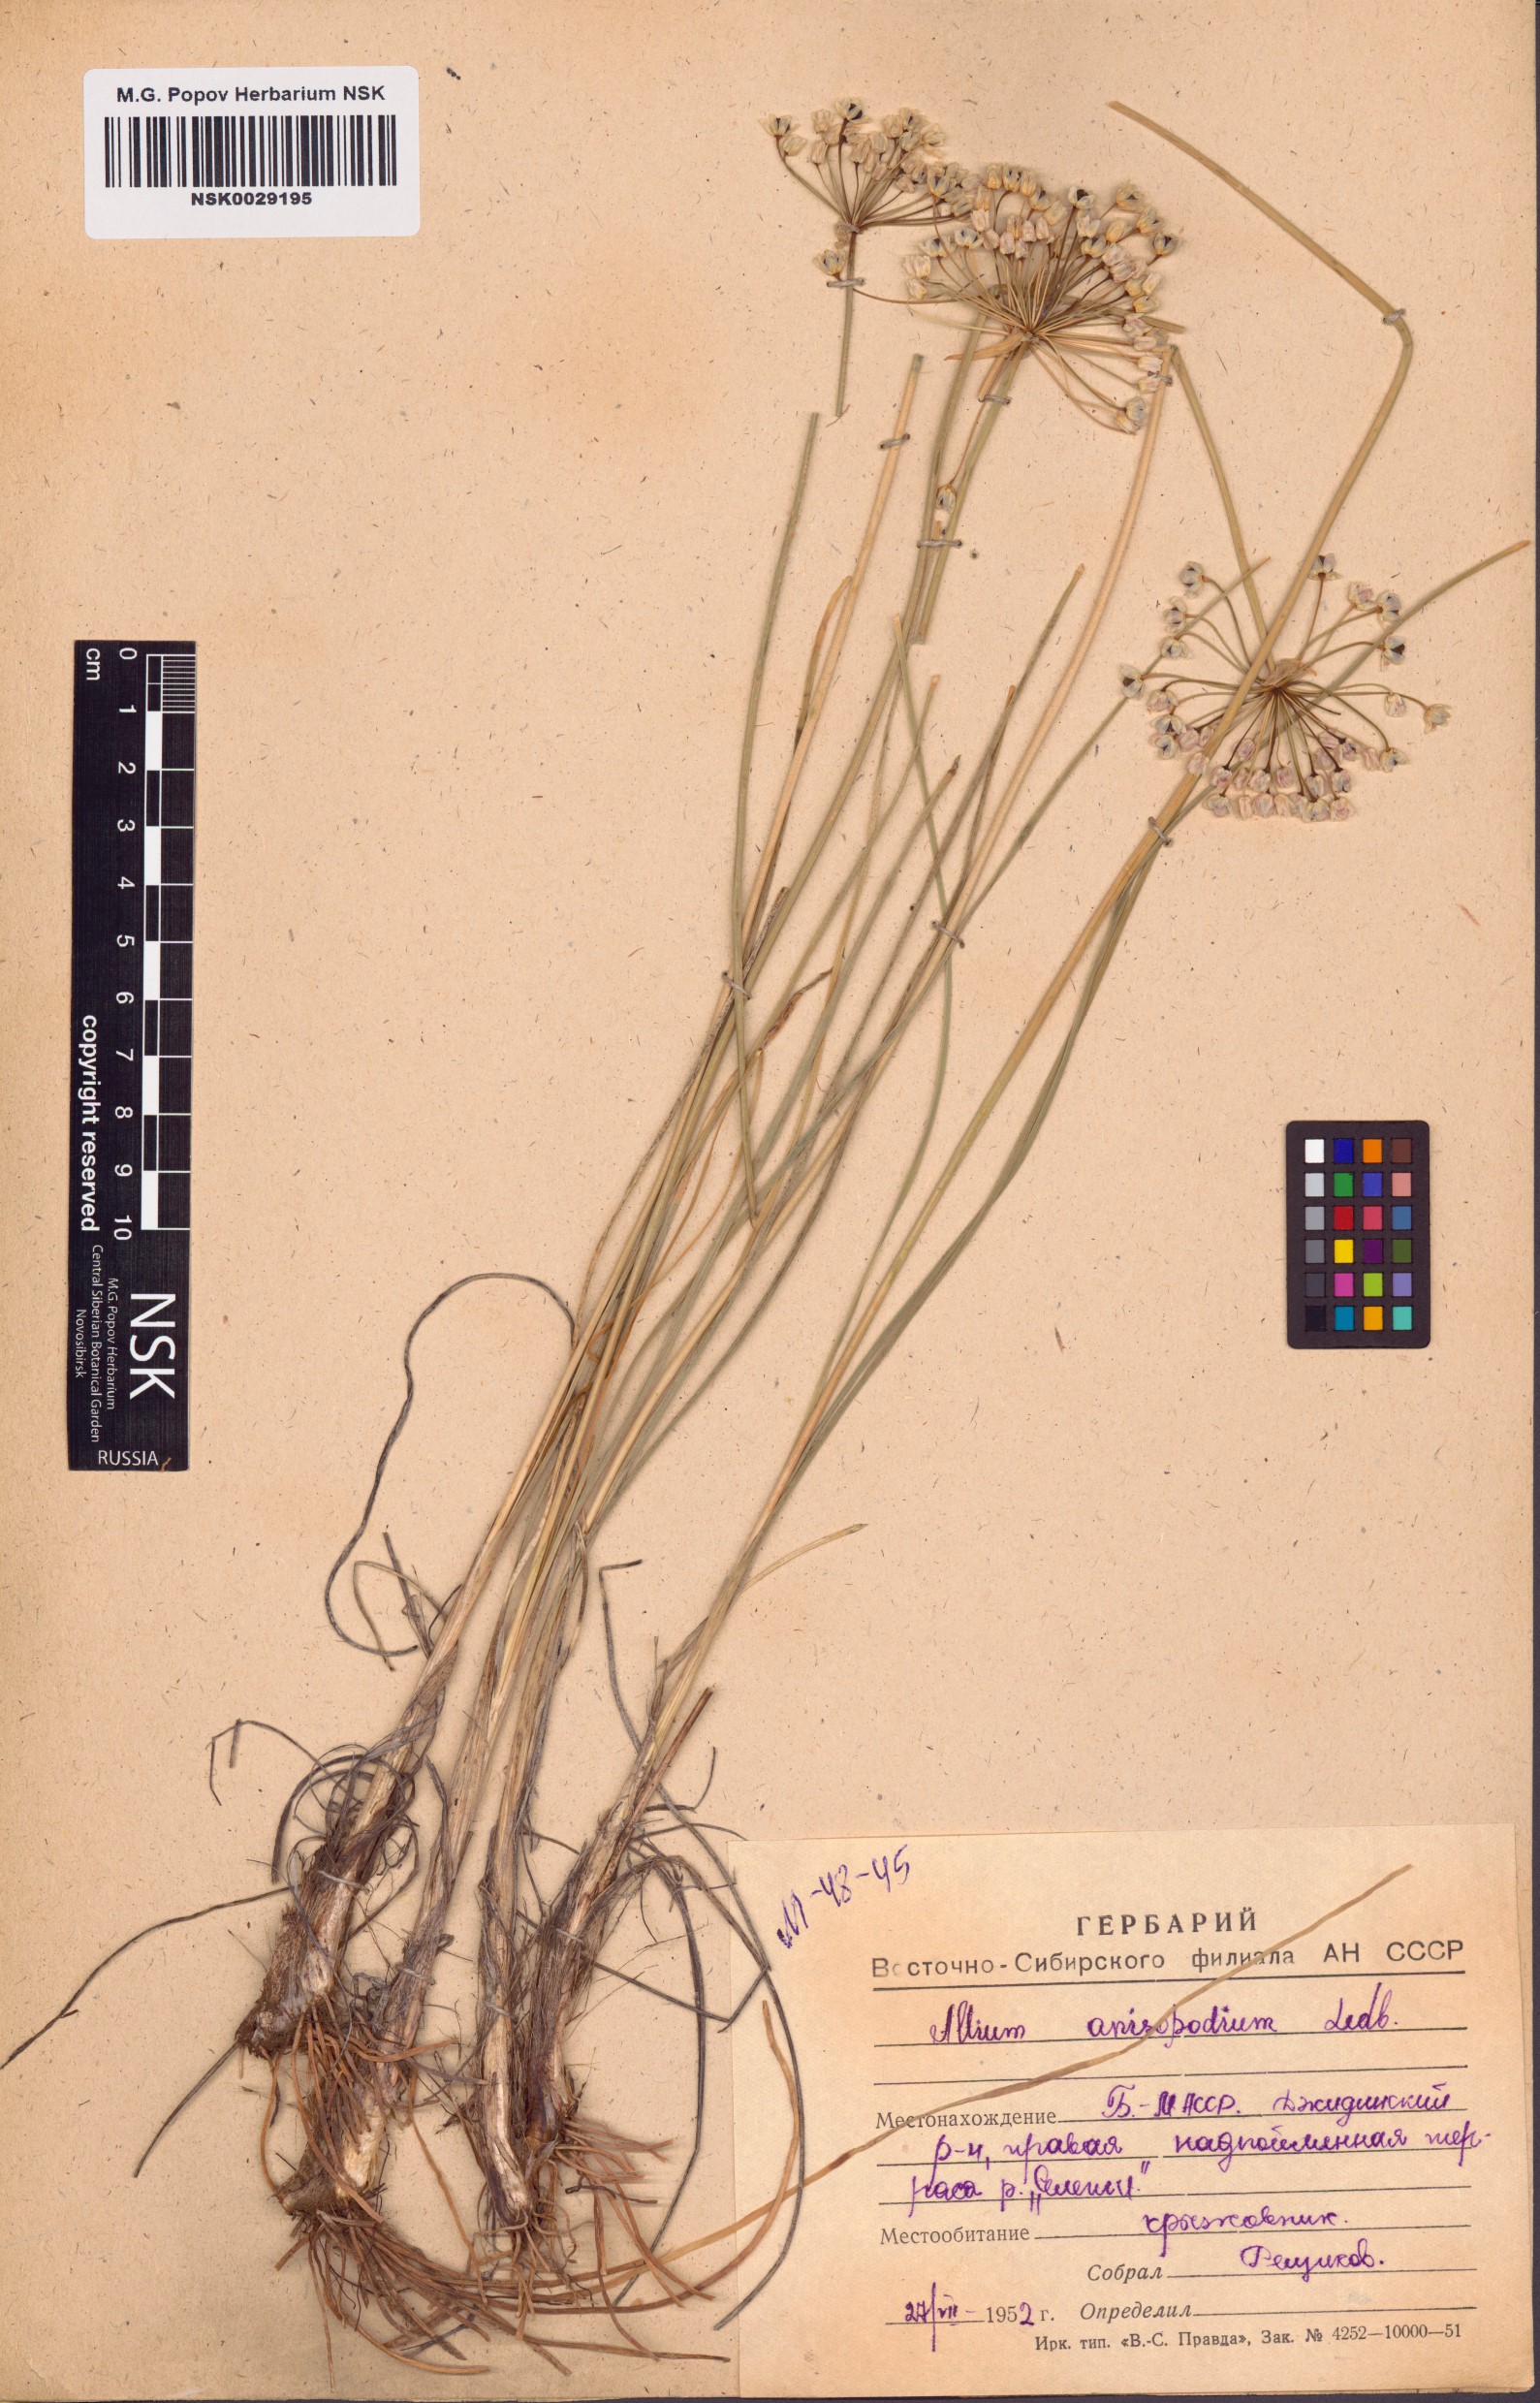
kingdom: Plantae
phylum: Tracheophyta
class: Liliopsida
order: Asparagales
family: Amaryllidaceae
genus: Allium
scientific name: Allium anisopodium
